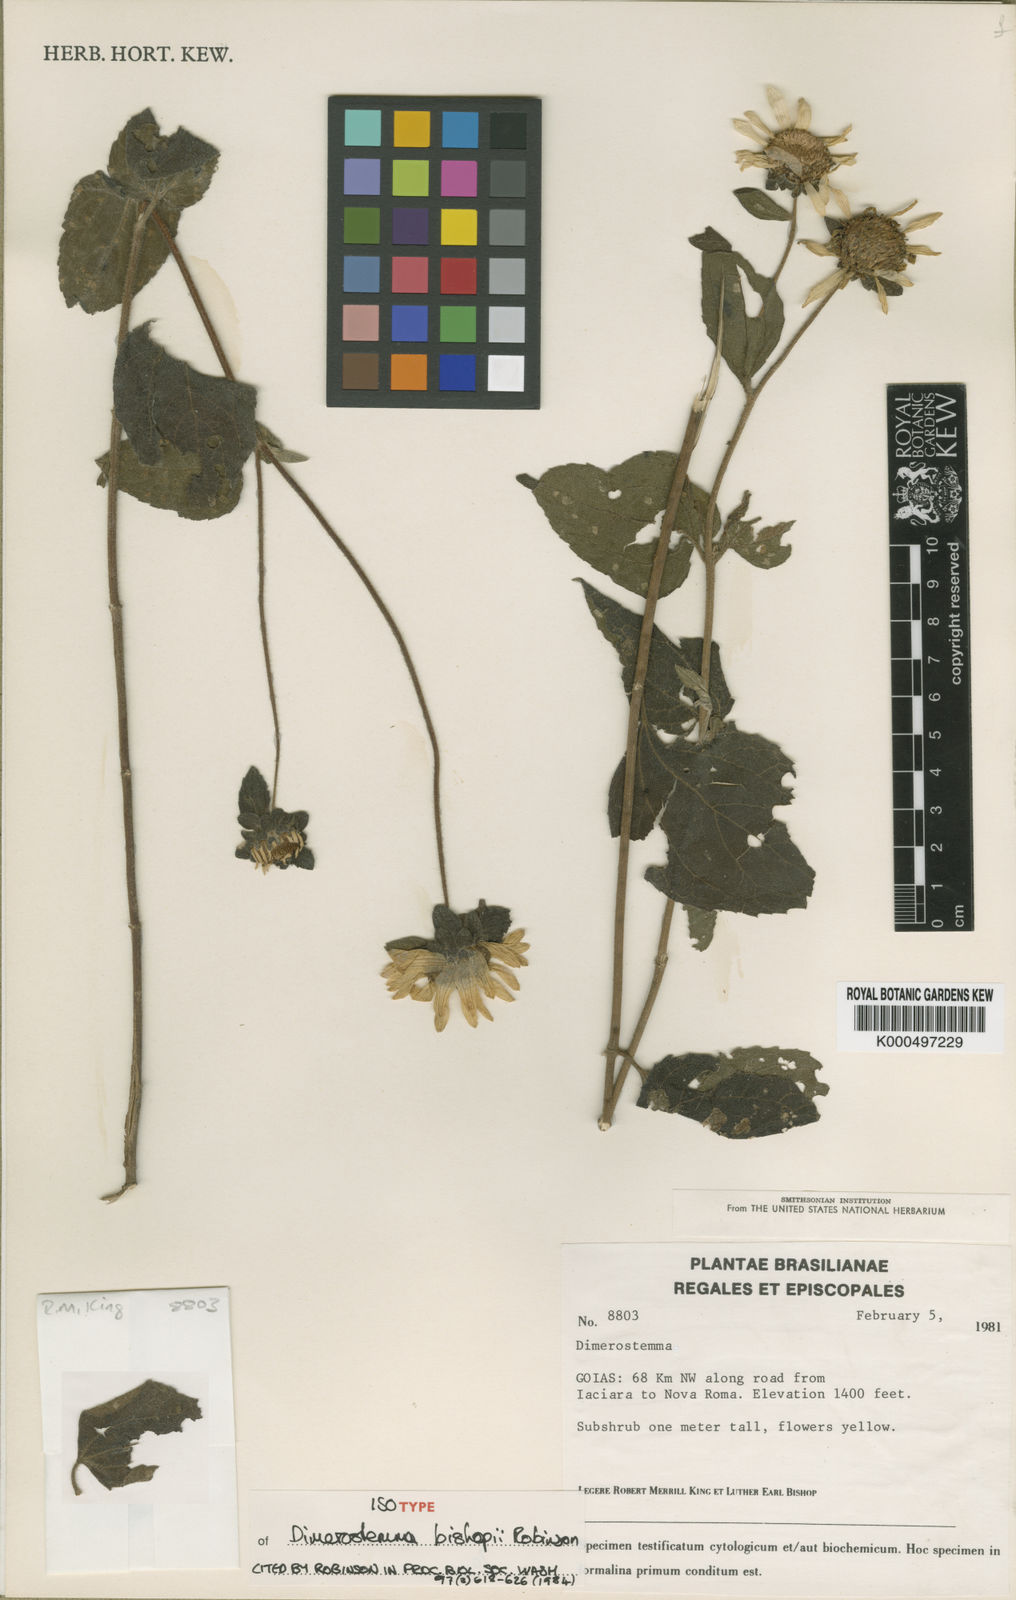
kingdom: Plantae
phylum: Tracheophyta
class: Magnoliopsida
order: Asterales
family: Asteraceae
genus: Dimerostemma
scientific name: Dimerostemma bishopii
